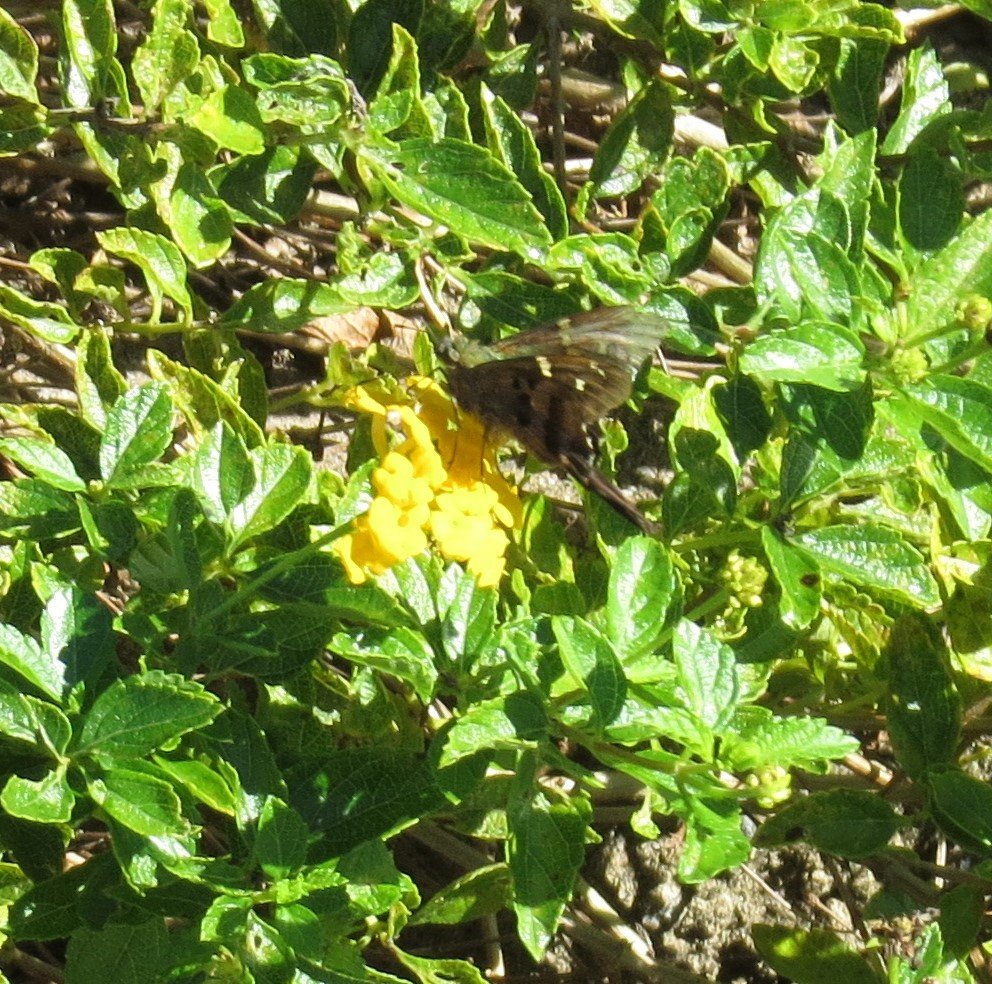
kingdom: Animalia
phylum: Arthropoda
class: Insecta
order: Lepidoptera
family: Hesperiidae
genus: Urbanus
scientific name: Urbanus proteus
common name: Long-tailed Skipper
